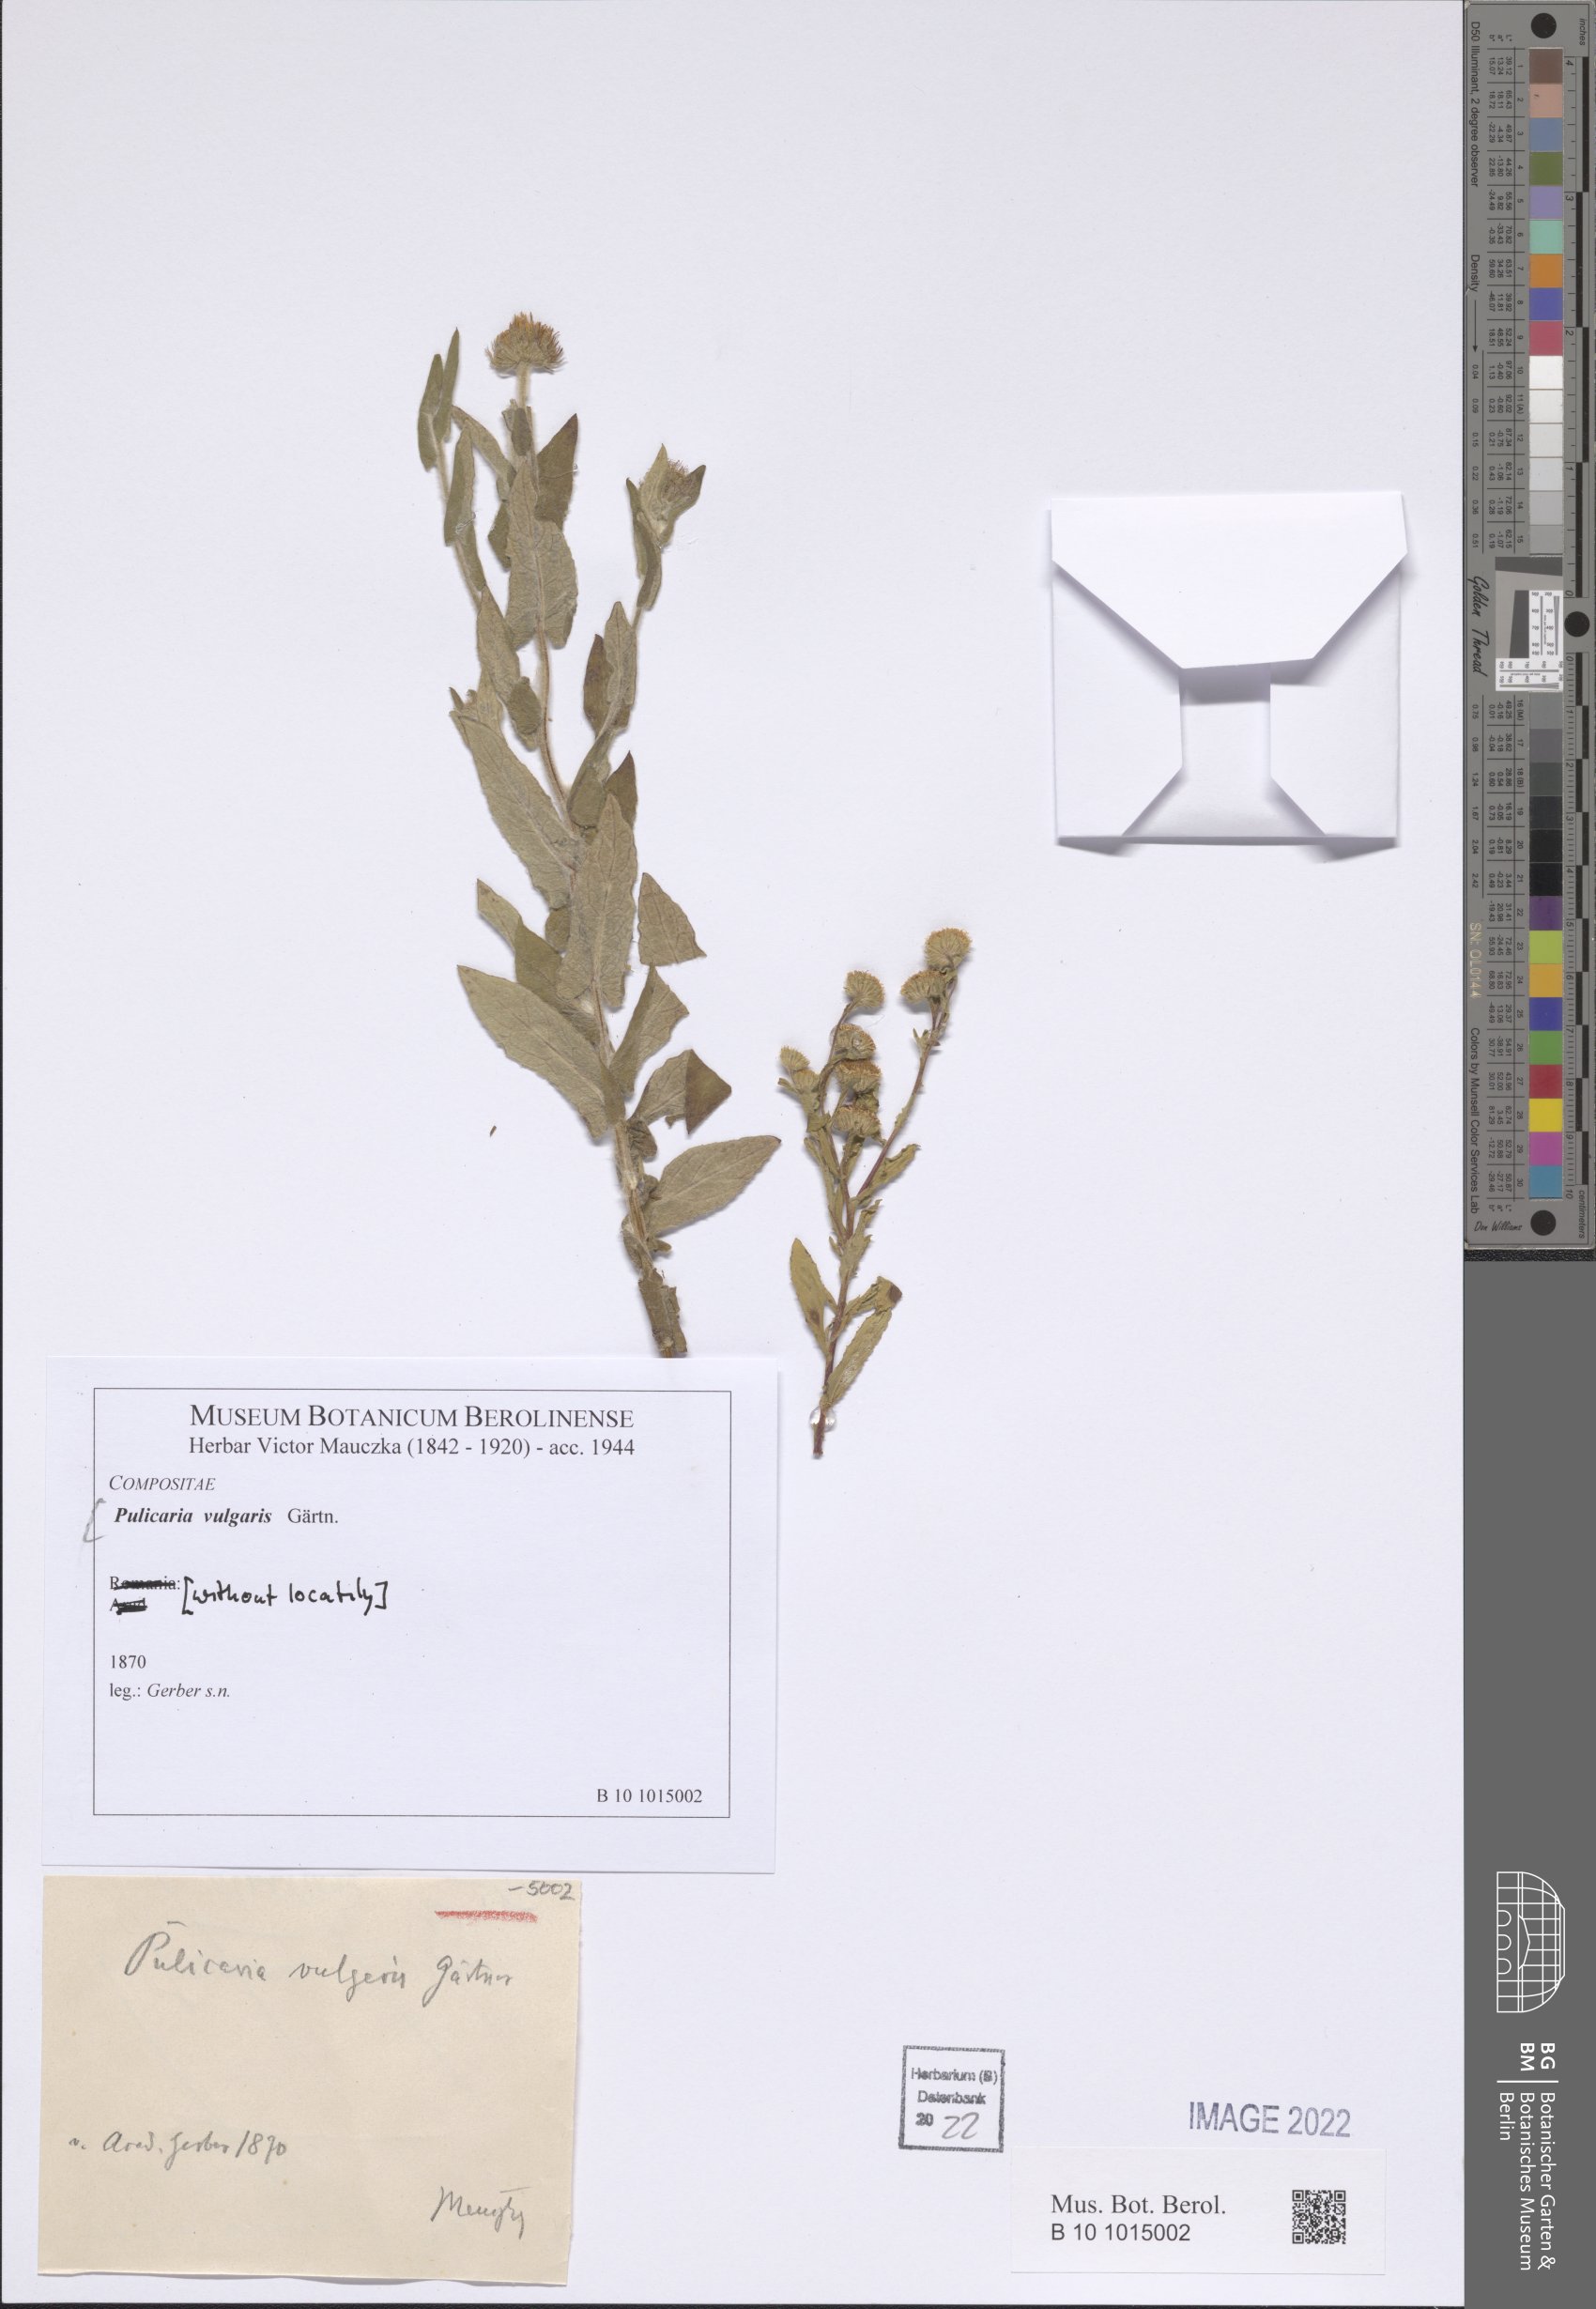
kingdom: Plantae
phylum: Tracheophyta
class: Magnoliopsida
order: Asterales
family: Asteraceae
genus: Pulicaria
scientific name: Pulicaria vulgaris
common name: Small fleabane
